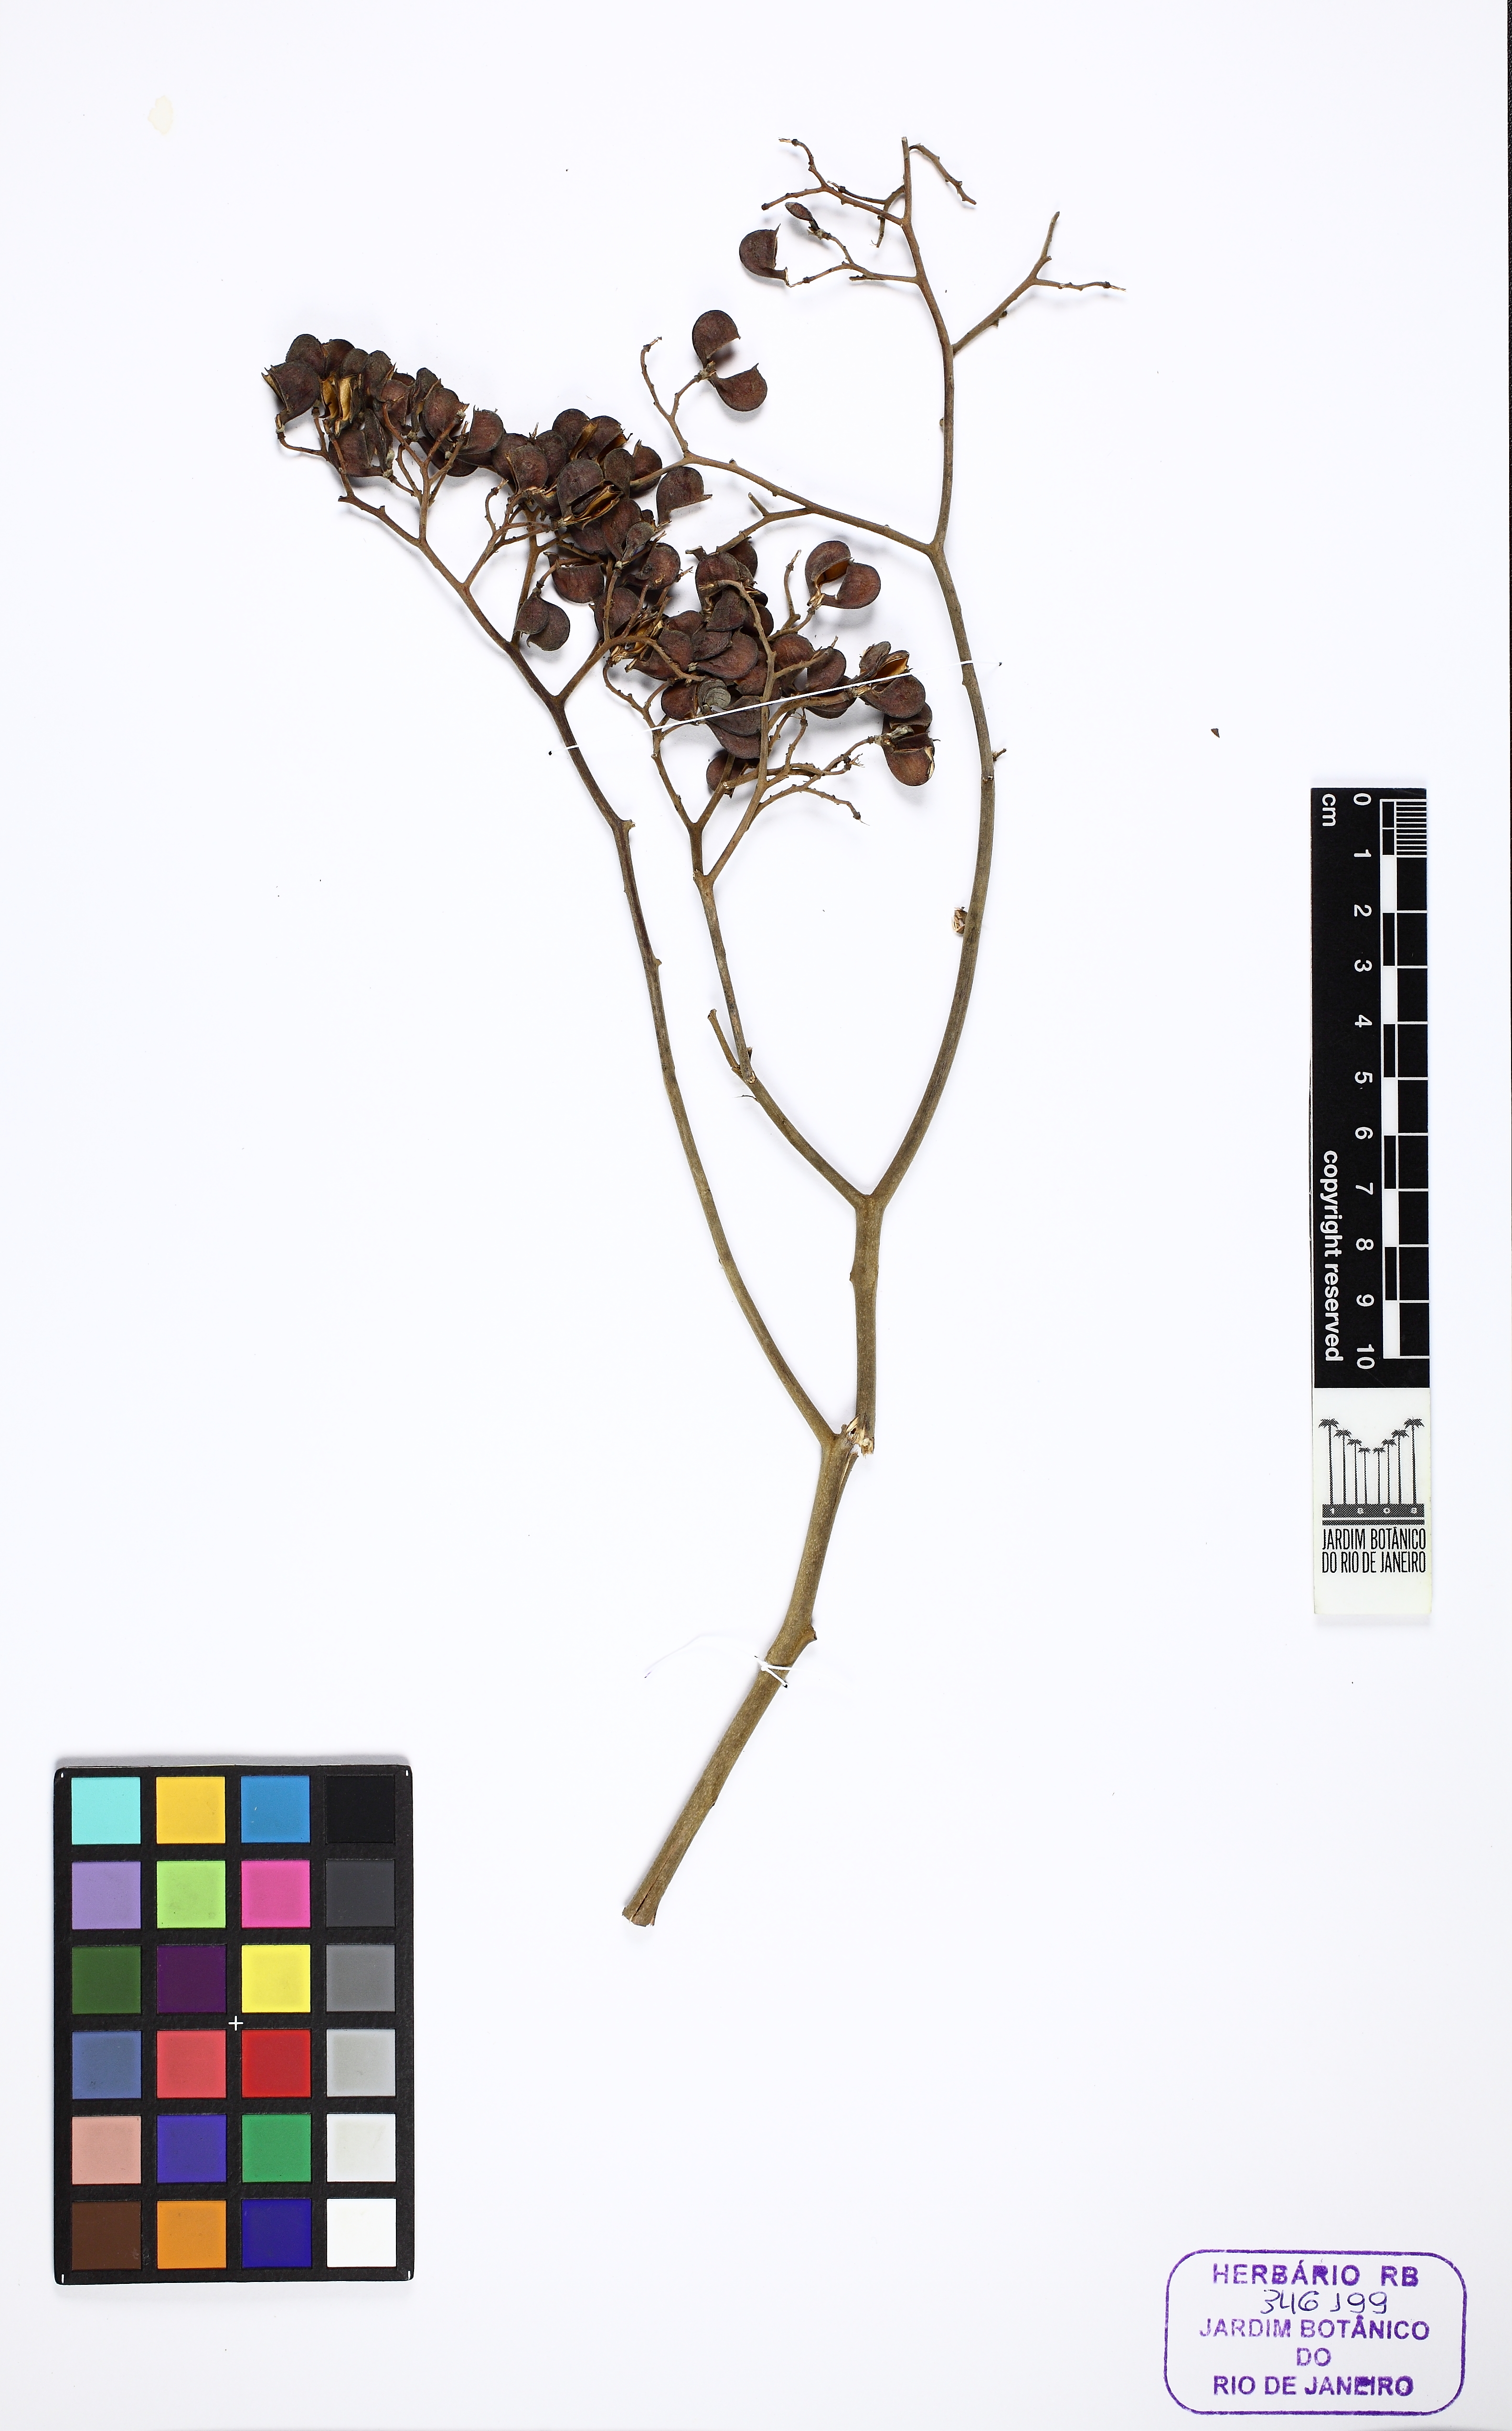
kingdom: Plantae
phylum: Tracheophyta
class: Magnoliopsida
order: Sapindales
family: Rutaceae
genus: Dictyoloma
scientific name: Dictyoloma vandellianum
